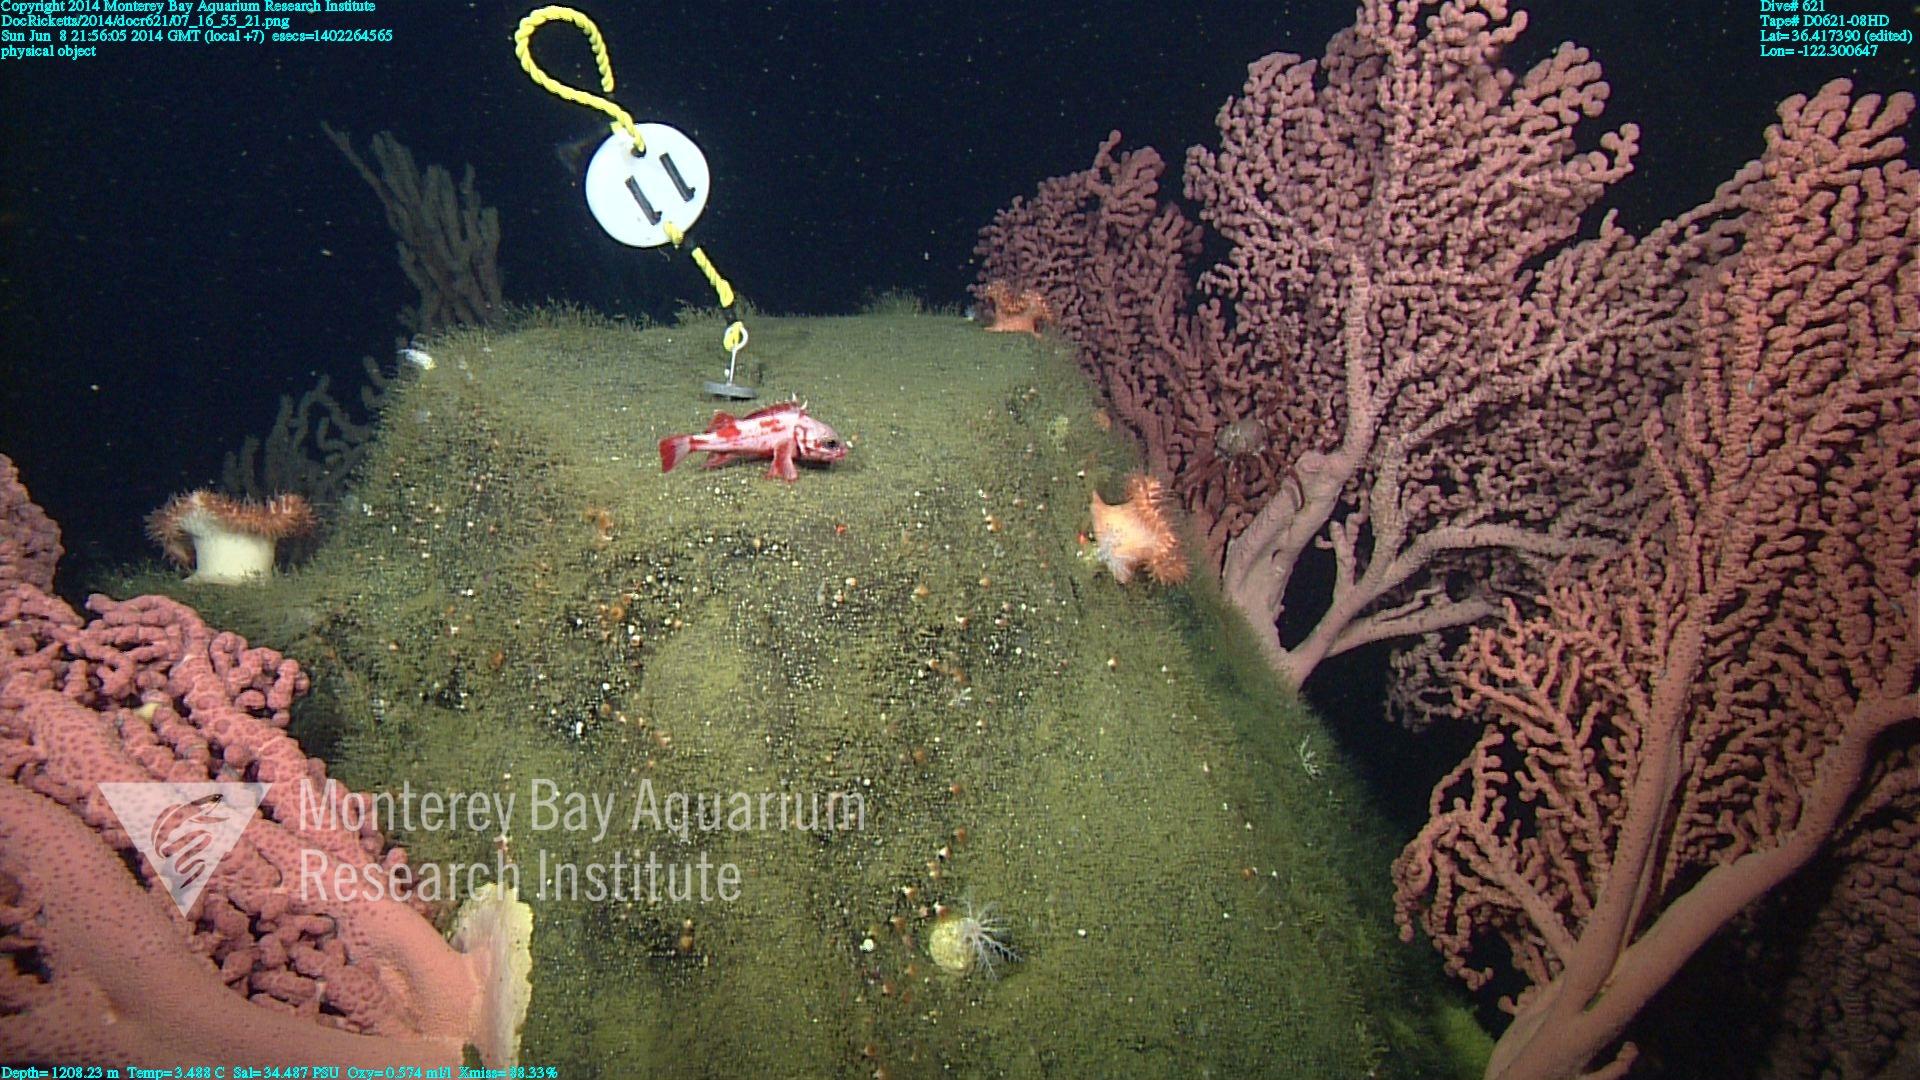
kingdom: Animalia
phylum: Cnidaria
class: Anthozoa
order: Scleralcyonacea
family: Coralliidae
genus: Paragorgia
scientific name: Paragorgia arborea
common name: Bubble gum coral
